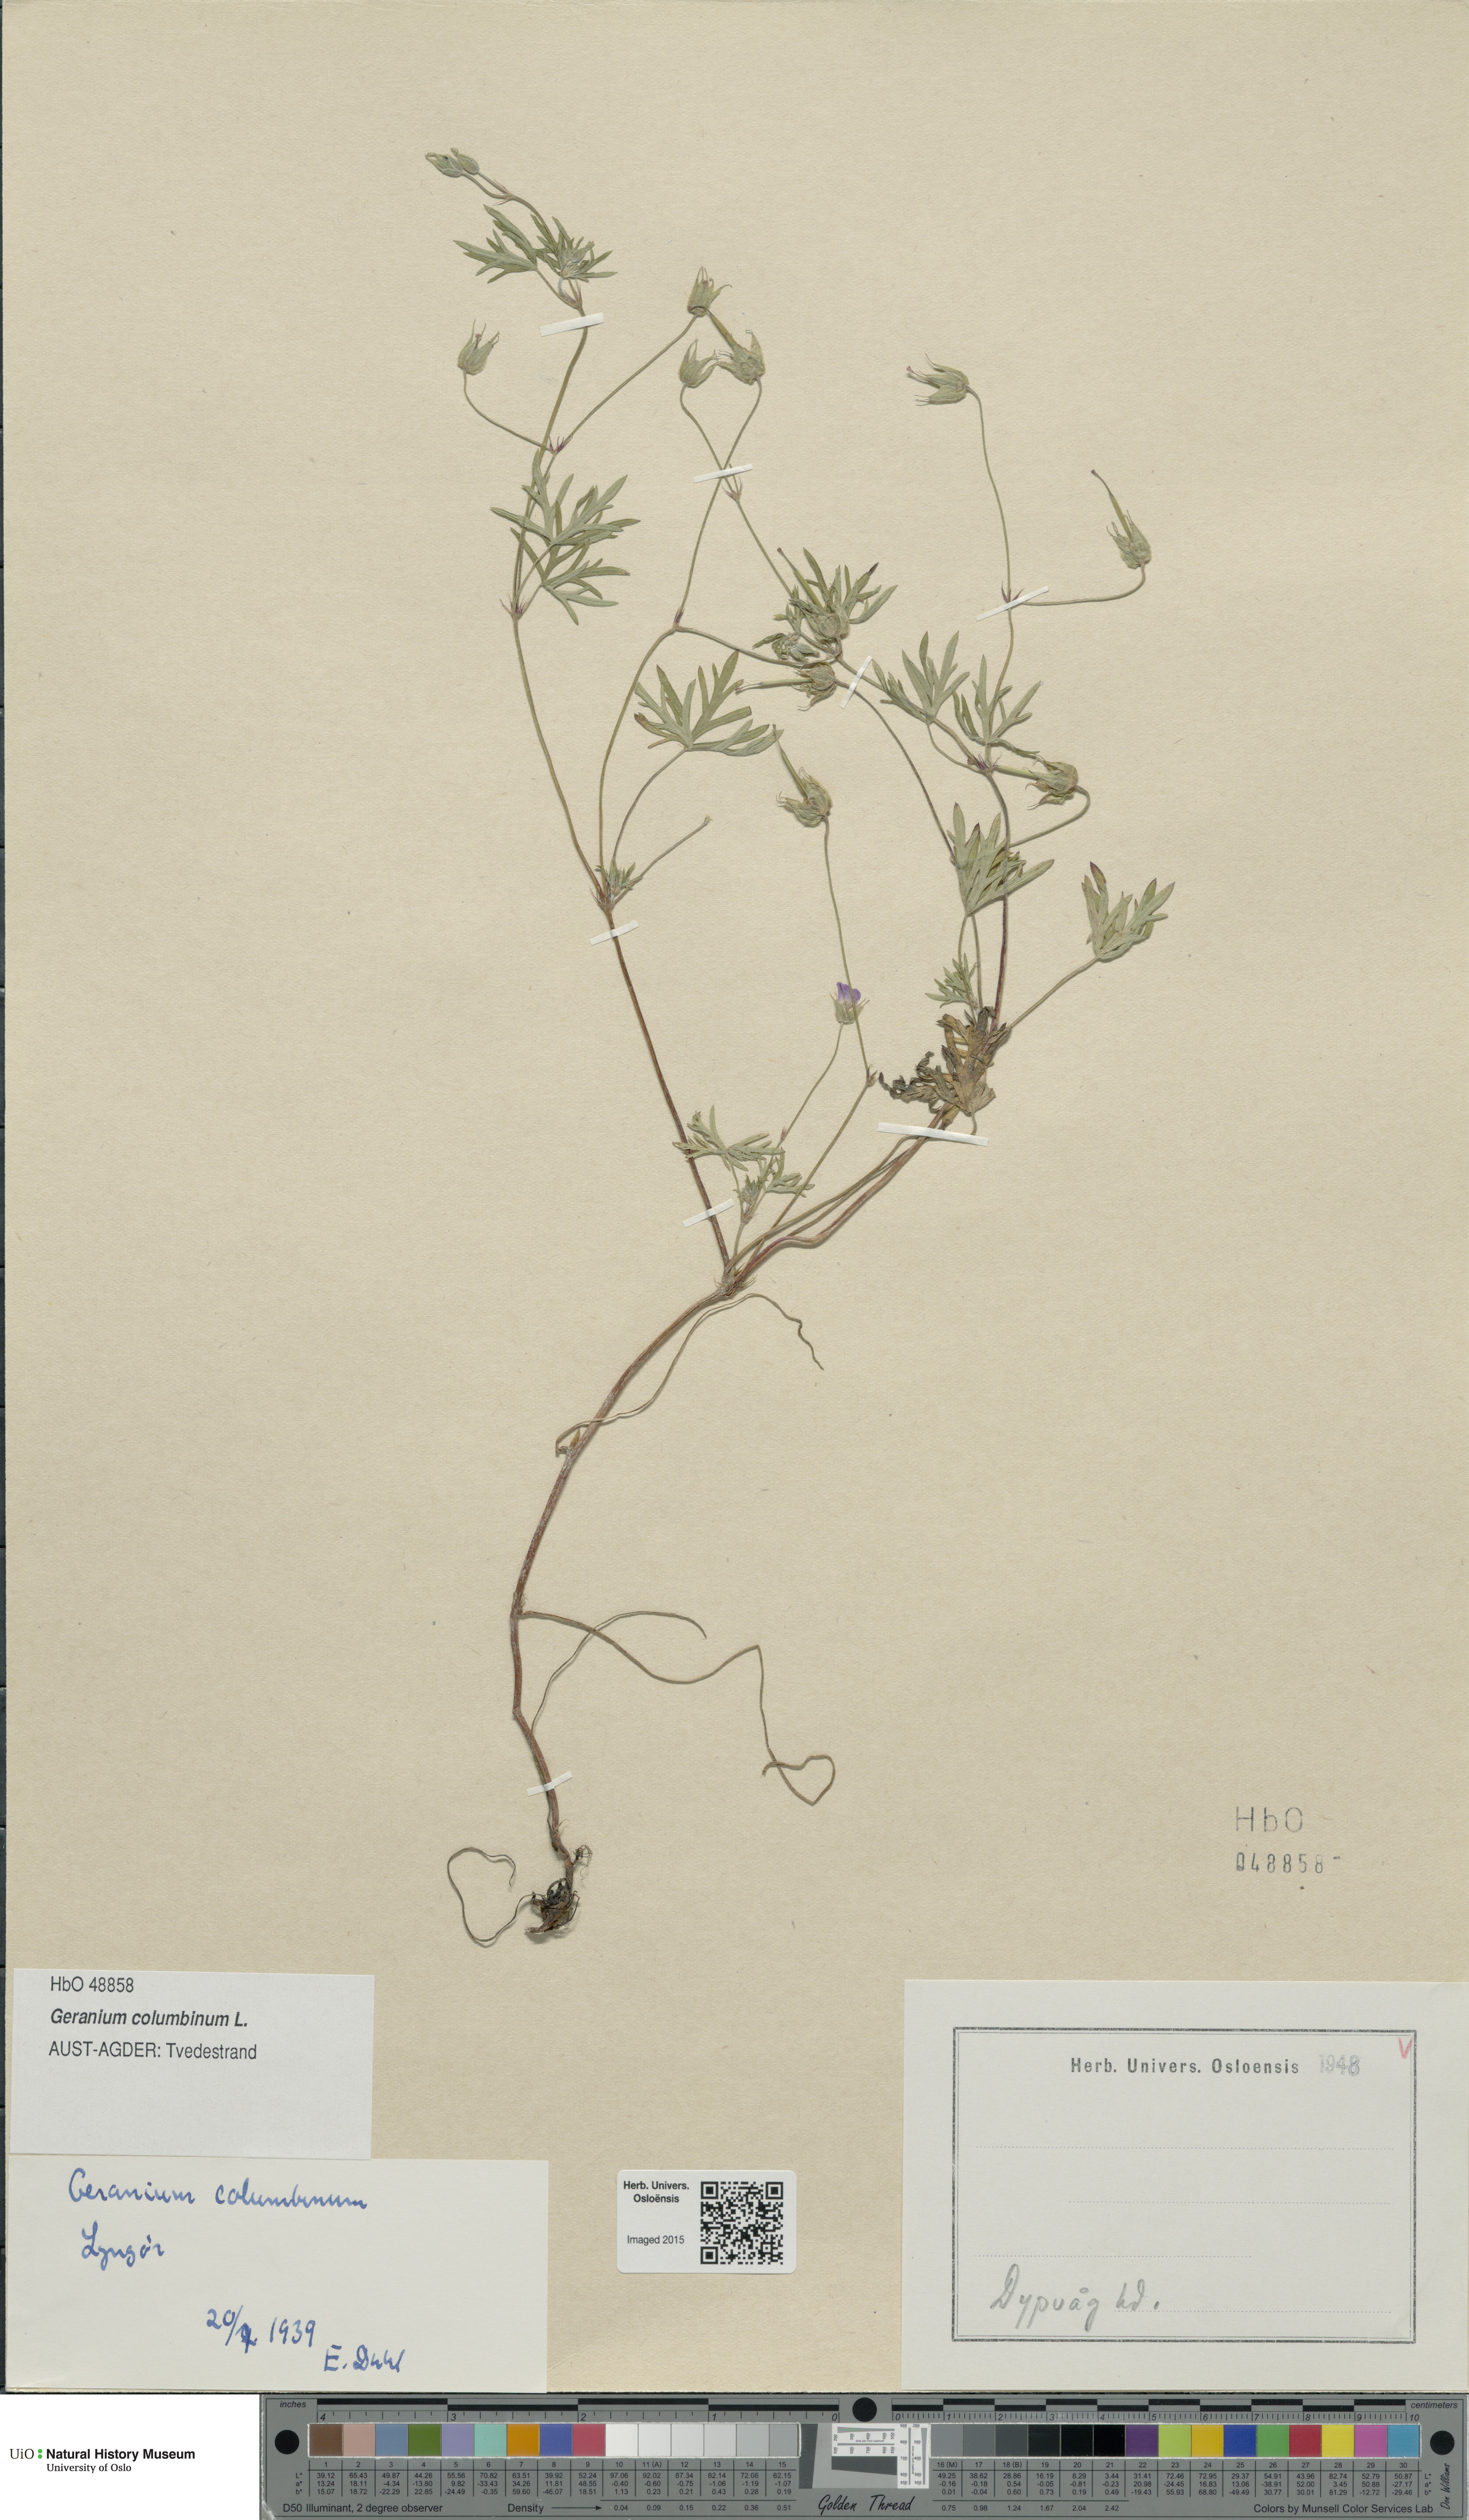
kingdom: Plantae
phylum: Tracheophyta
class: Magnoliopsida
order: Geraniales
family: Geraniaceae
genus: Geranium
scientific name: Geranium columbinum
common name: Long-stalked crane's-bill
